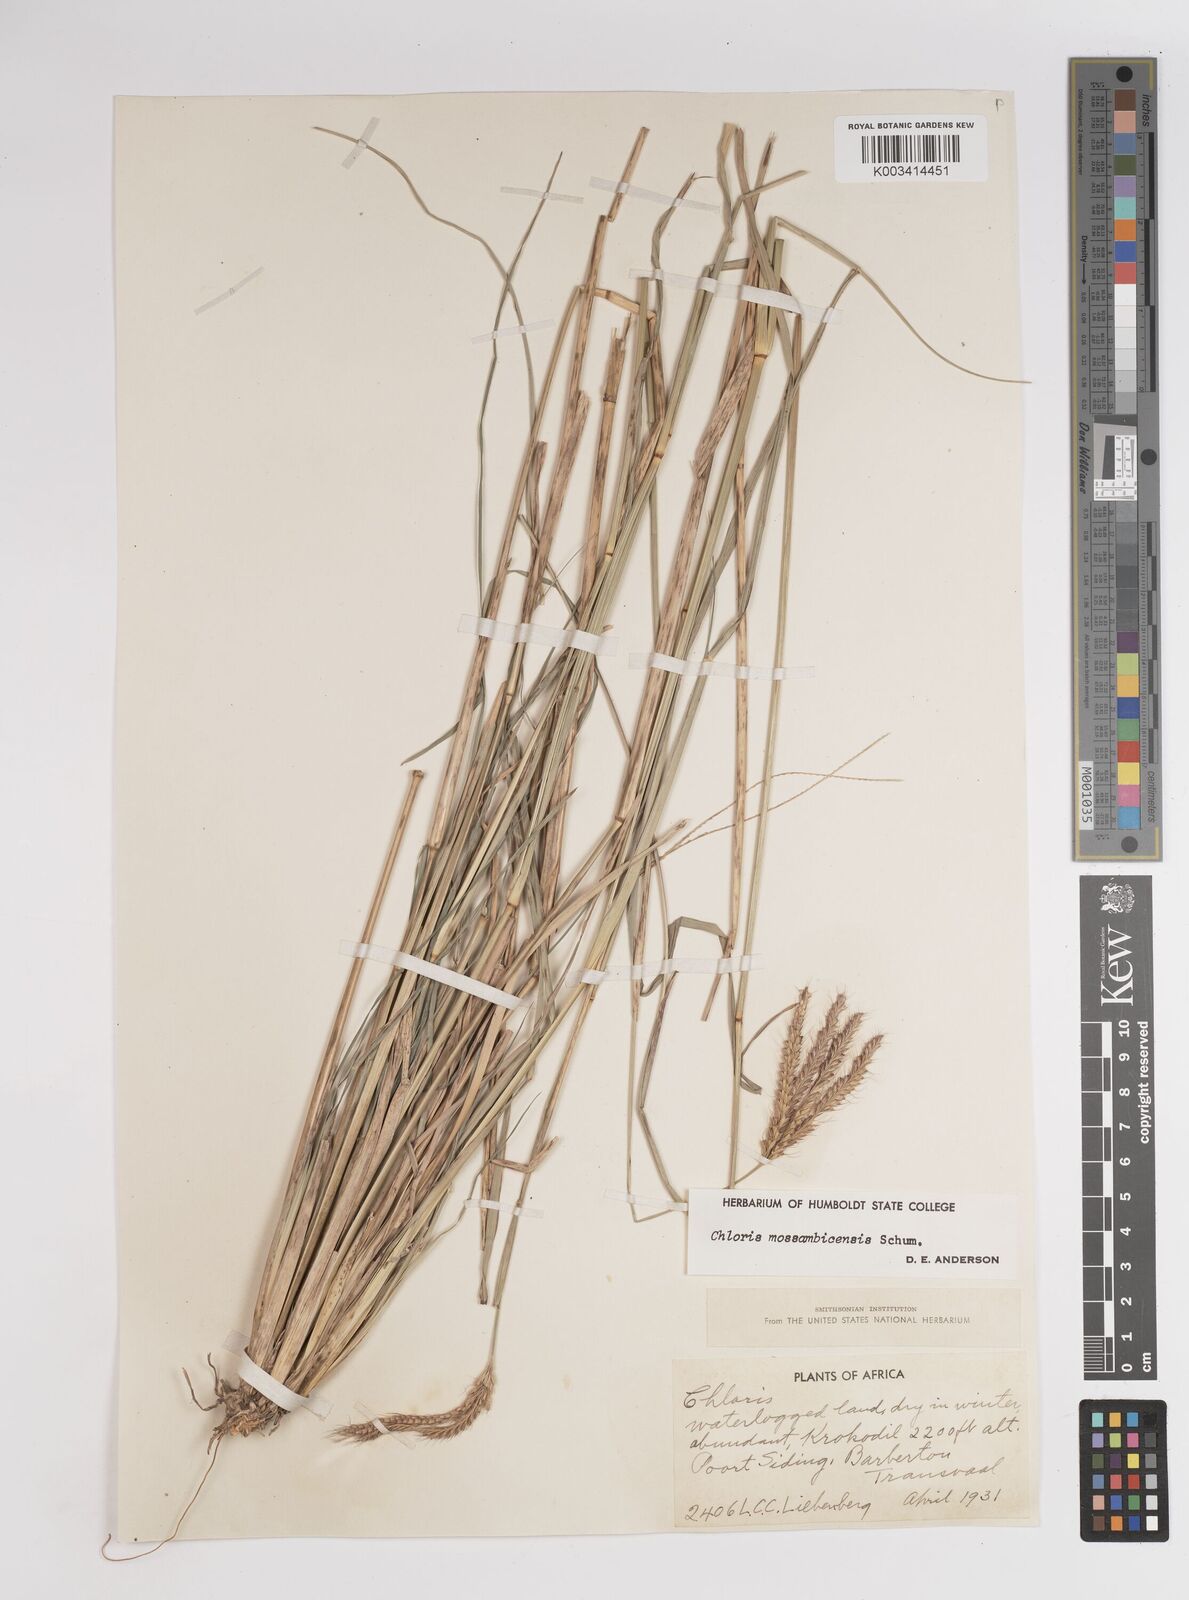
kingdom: Plantae
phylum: Tracheophyta
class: Liliopsida
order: Poales
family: Poaceae
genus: Chloris
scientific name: Chloris mossambicensis
